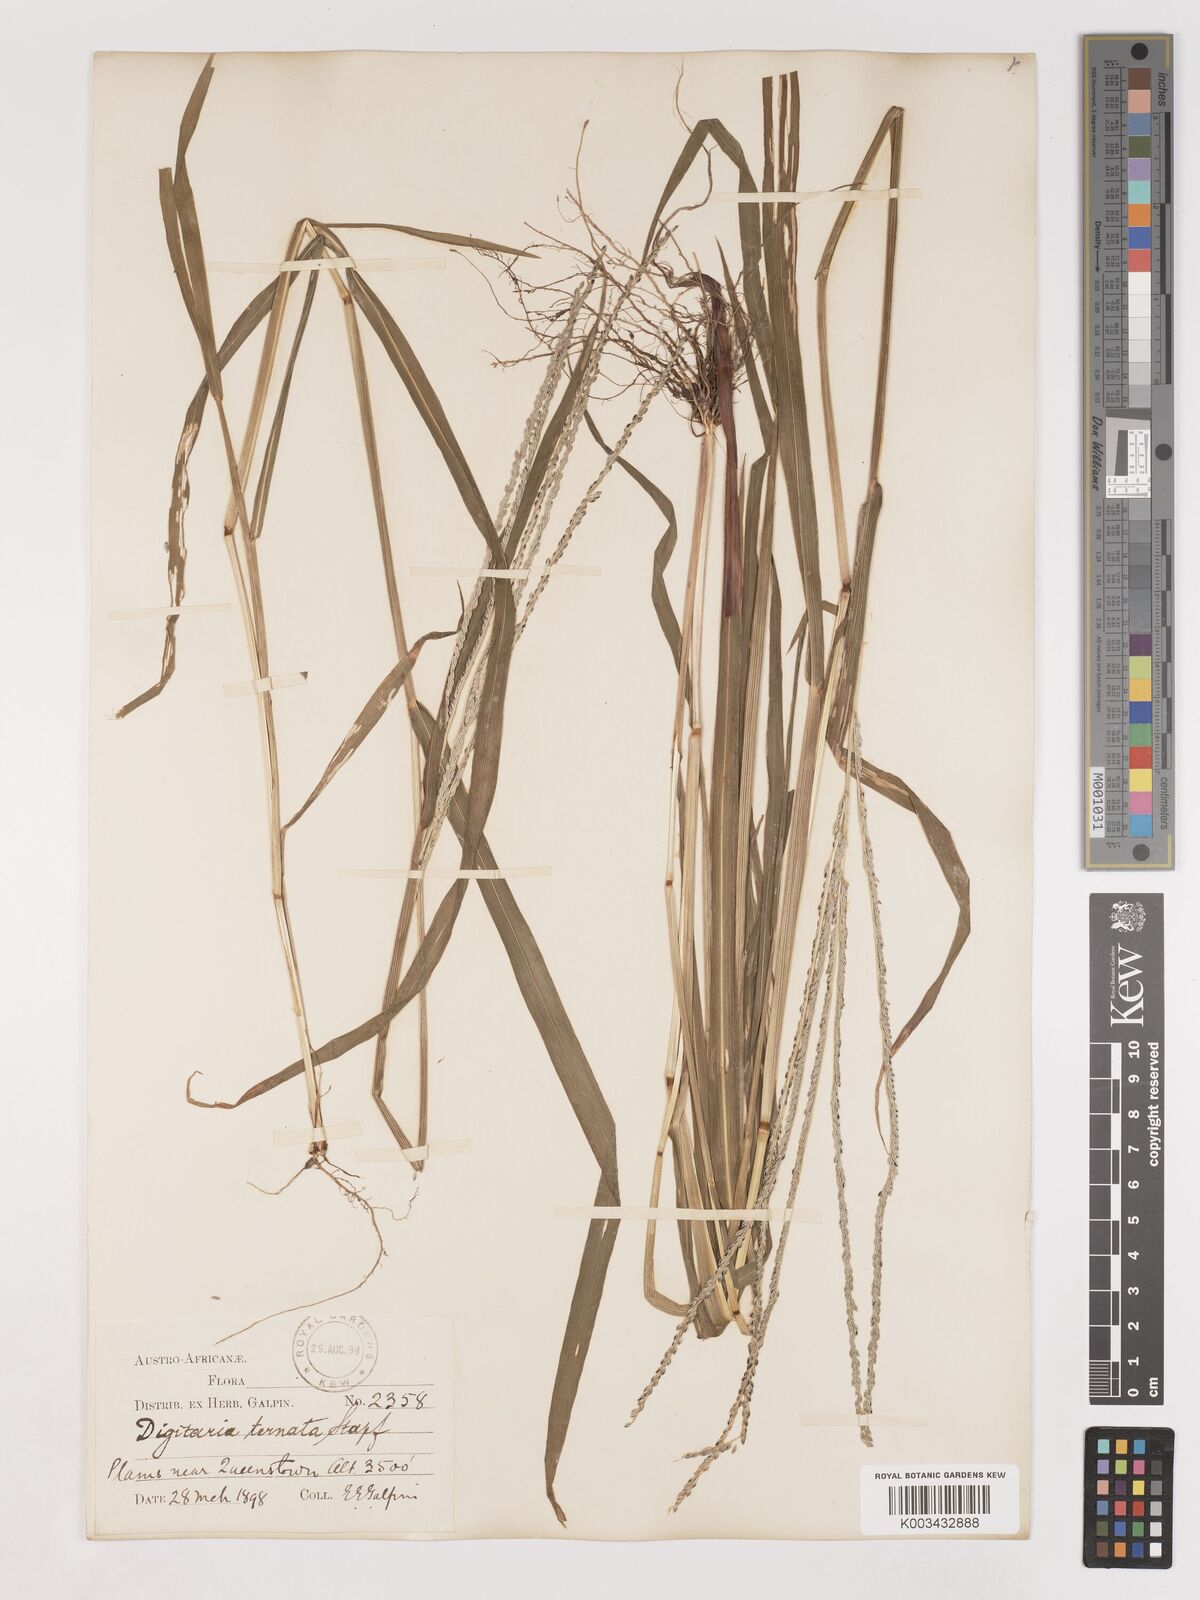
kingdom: Plantae
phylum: Tracheophyta
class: Liliopsida
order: Poales
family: Poaceae
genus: Digitaria
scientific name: Digitaria ternata
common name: Blackseed crabgrass
